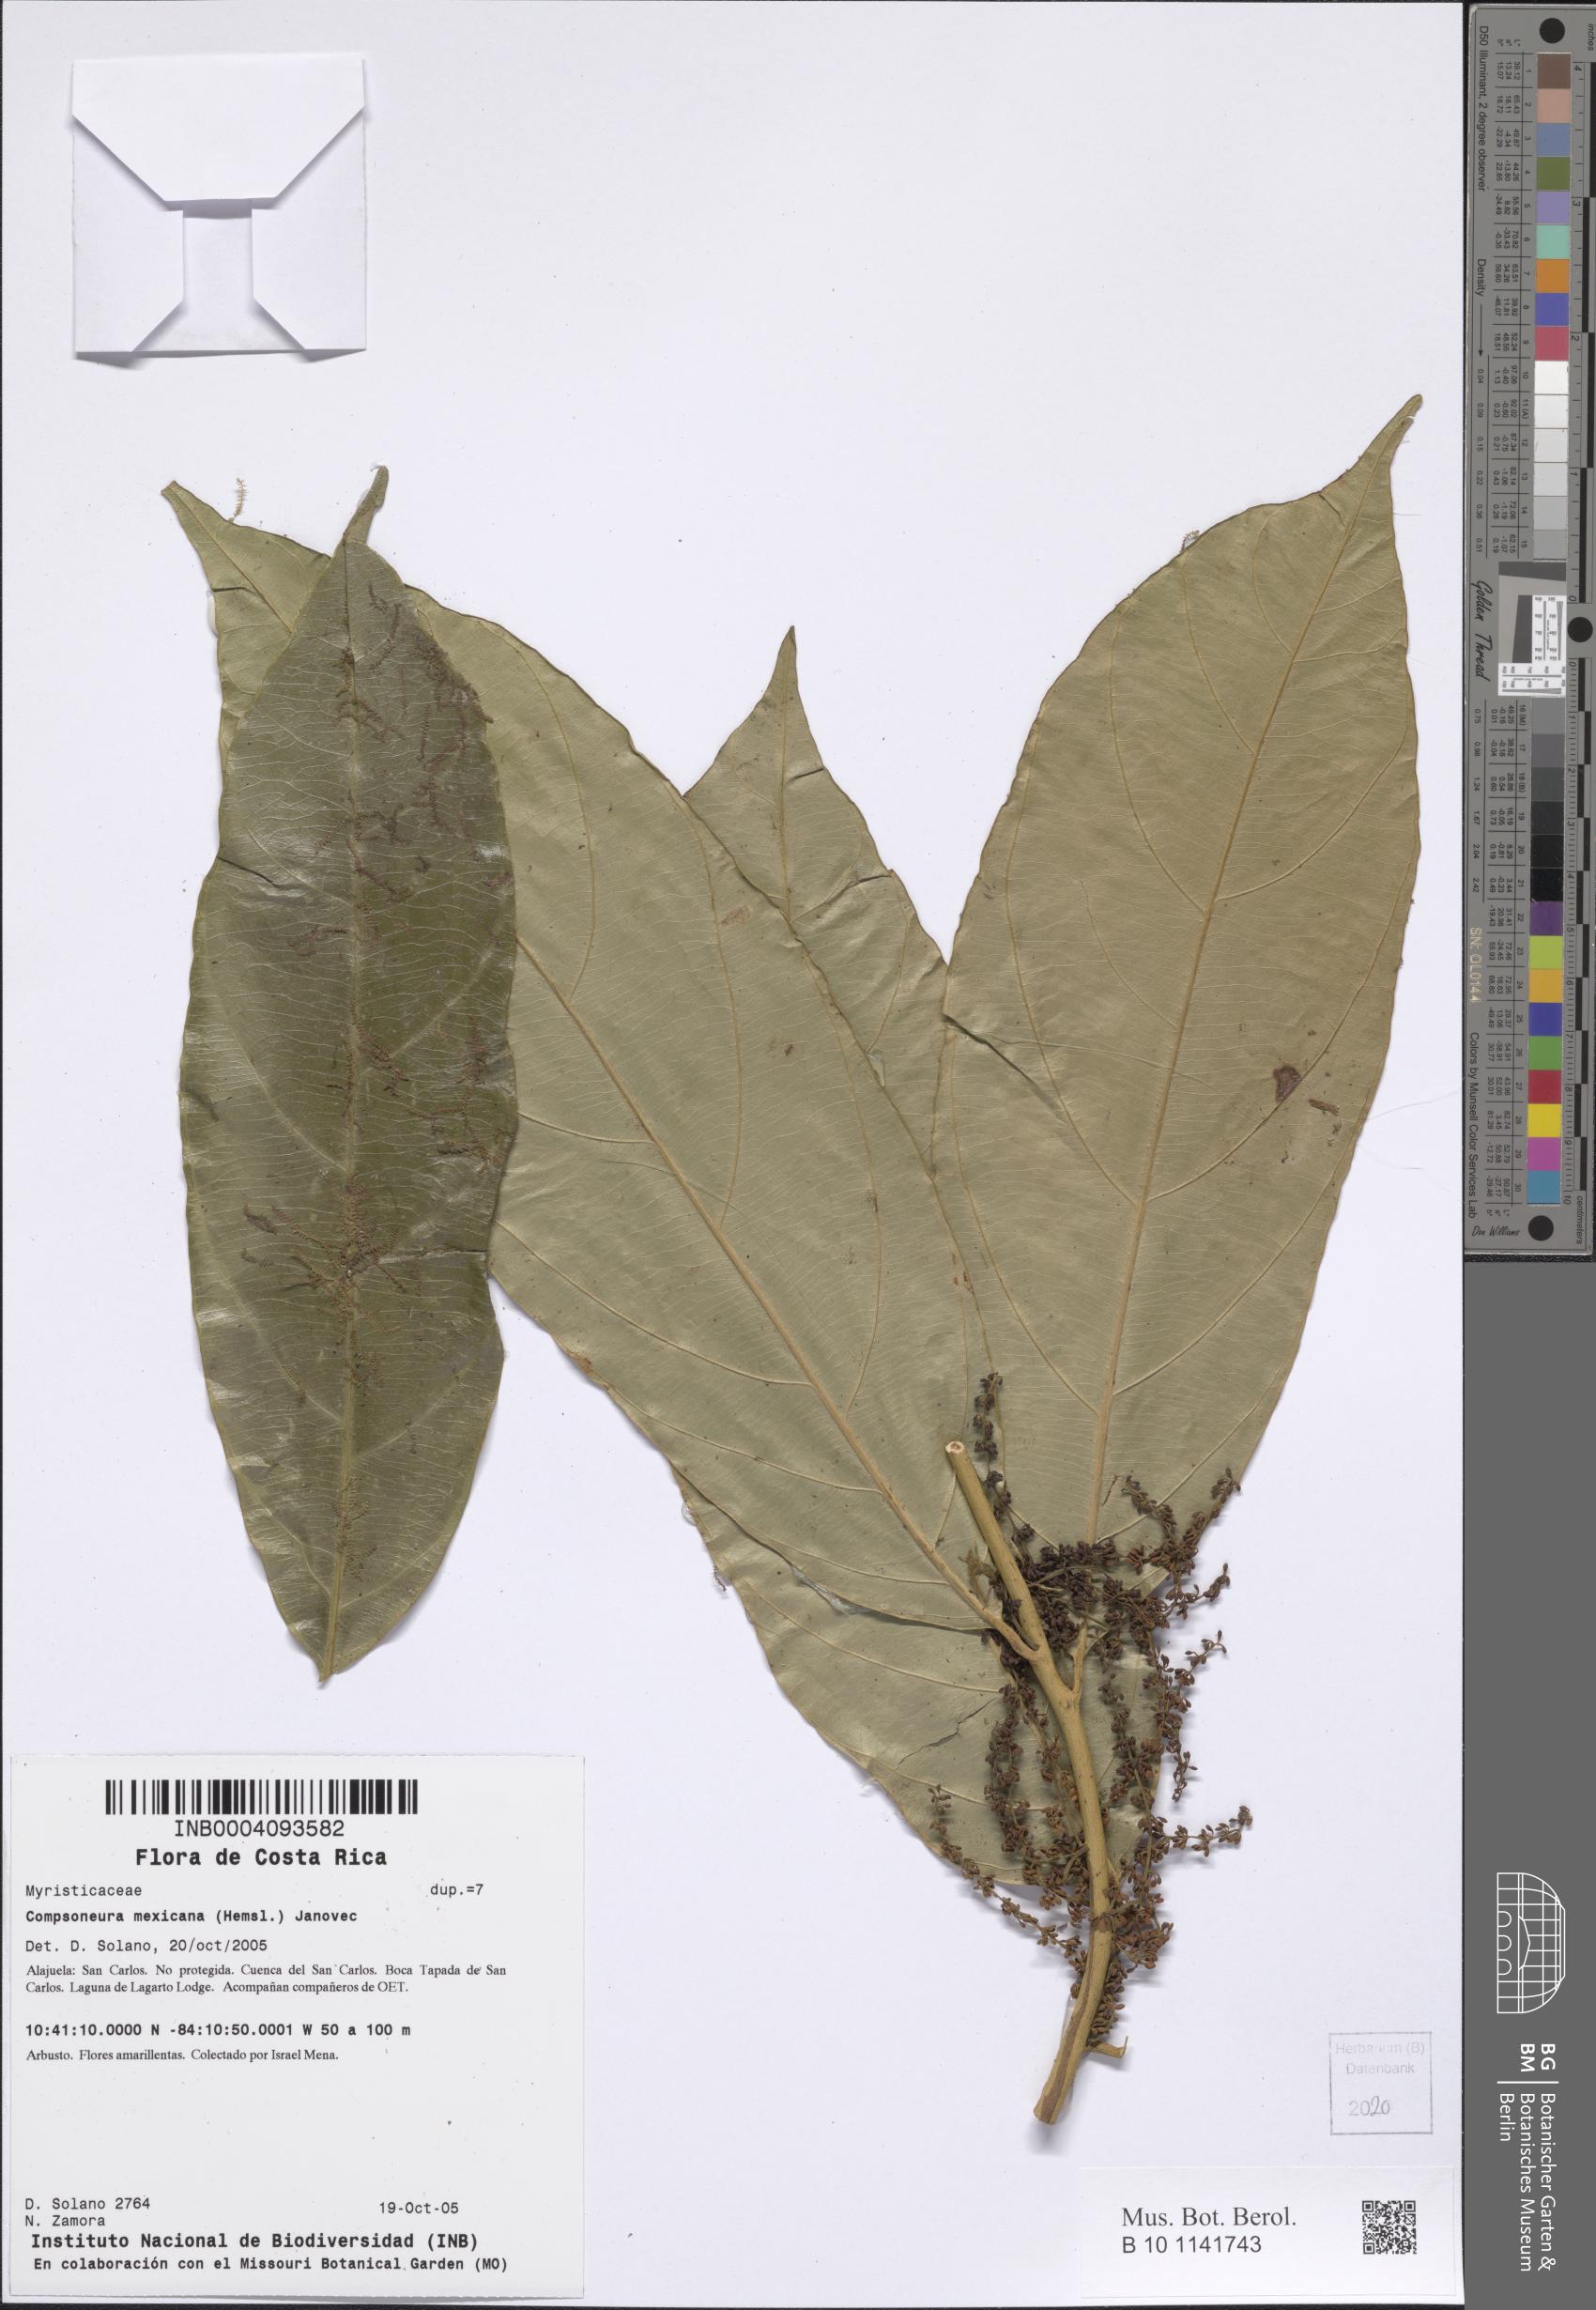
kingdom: Plantae
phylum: Tracheophyta
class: Magnoliopsida
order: Magnoliales
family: Myristicaceae
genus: Compsoneura
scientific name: Compsoneura mexicana
